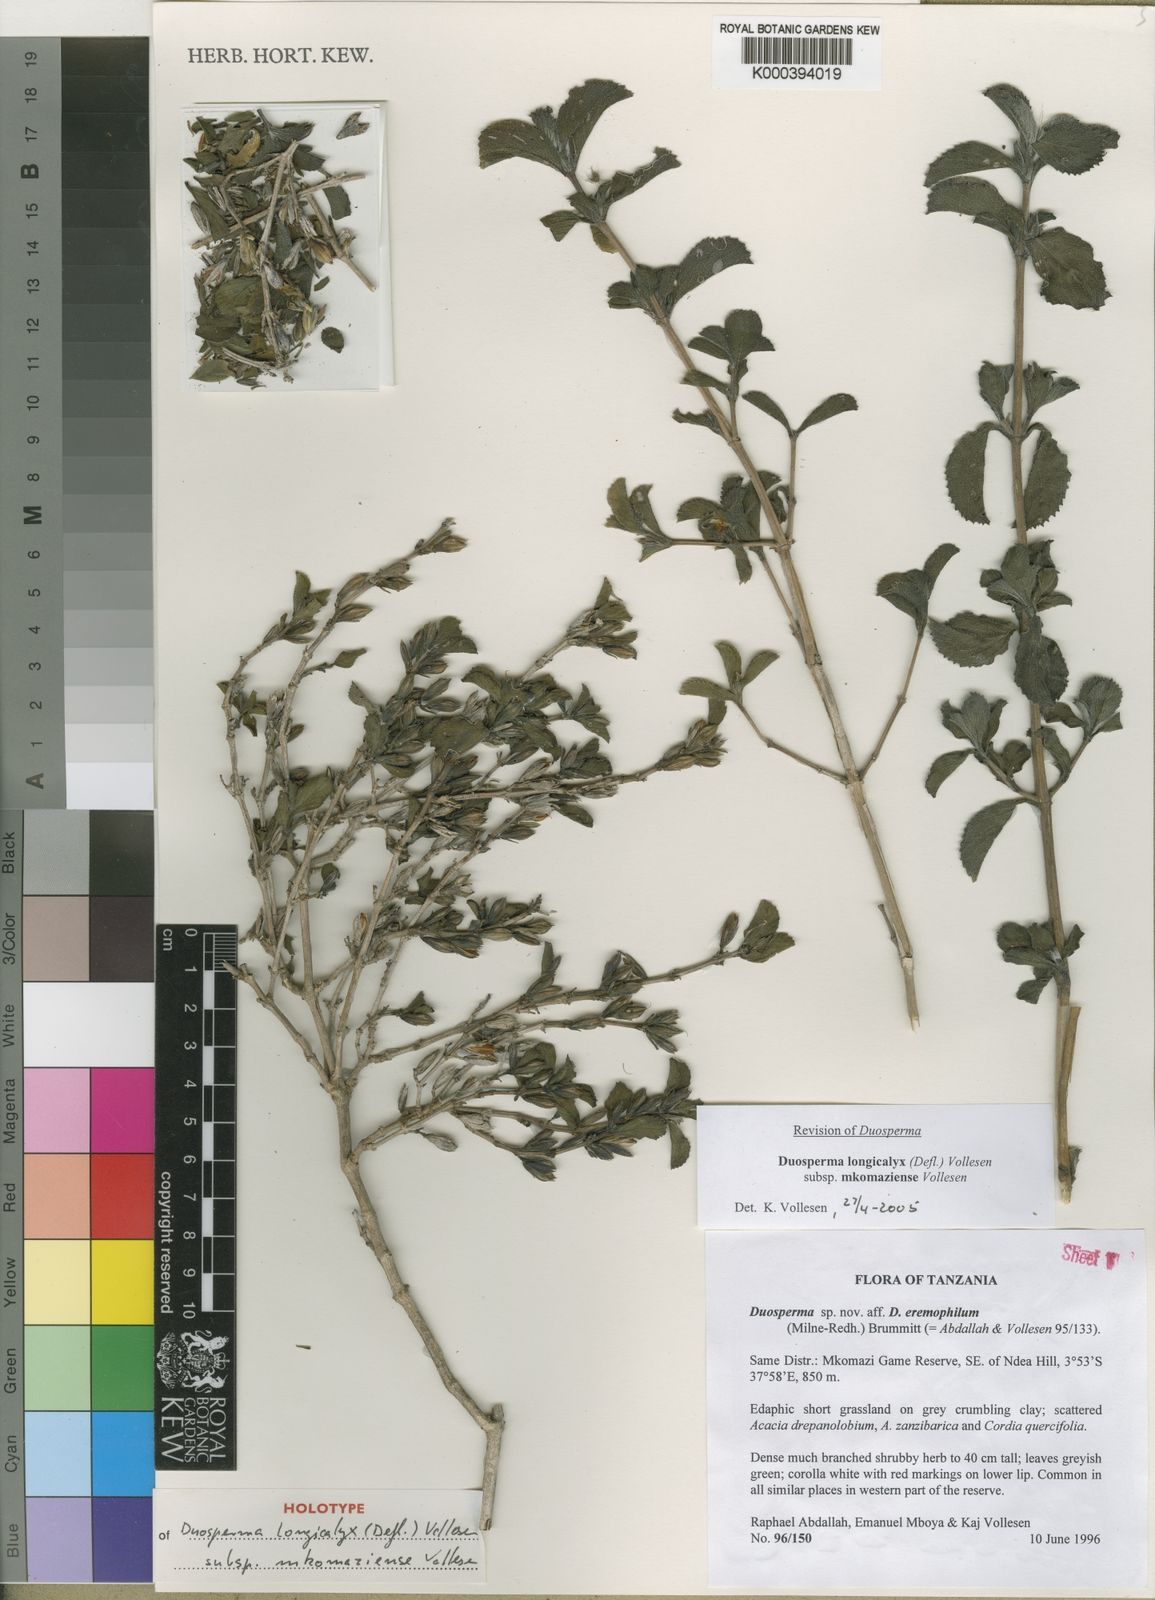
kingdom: Plantae
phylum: Tracheophyta
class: Magnoliopsida
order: Lamiales
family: Acanthaceae
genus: Duosperma
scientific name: Duosperma longicalyx
